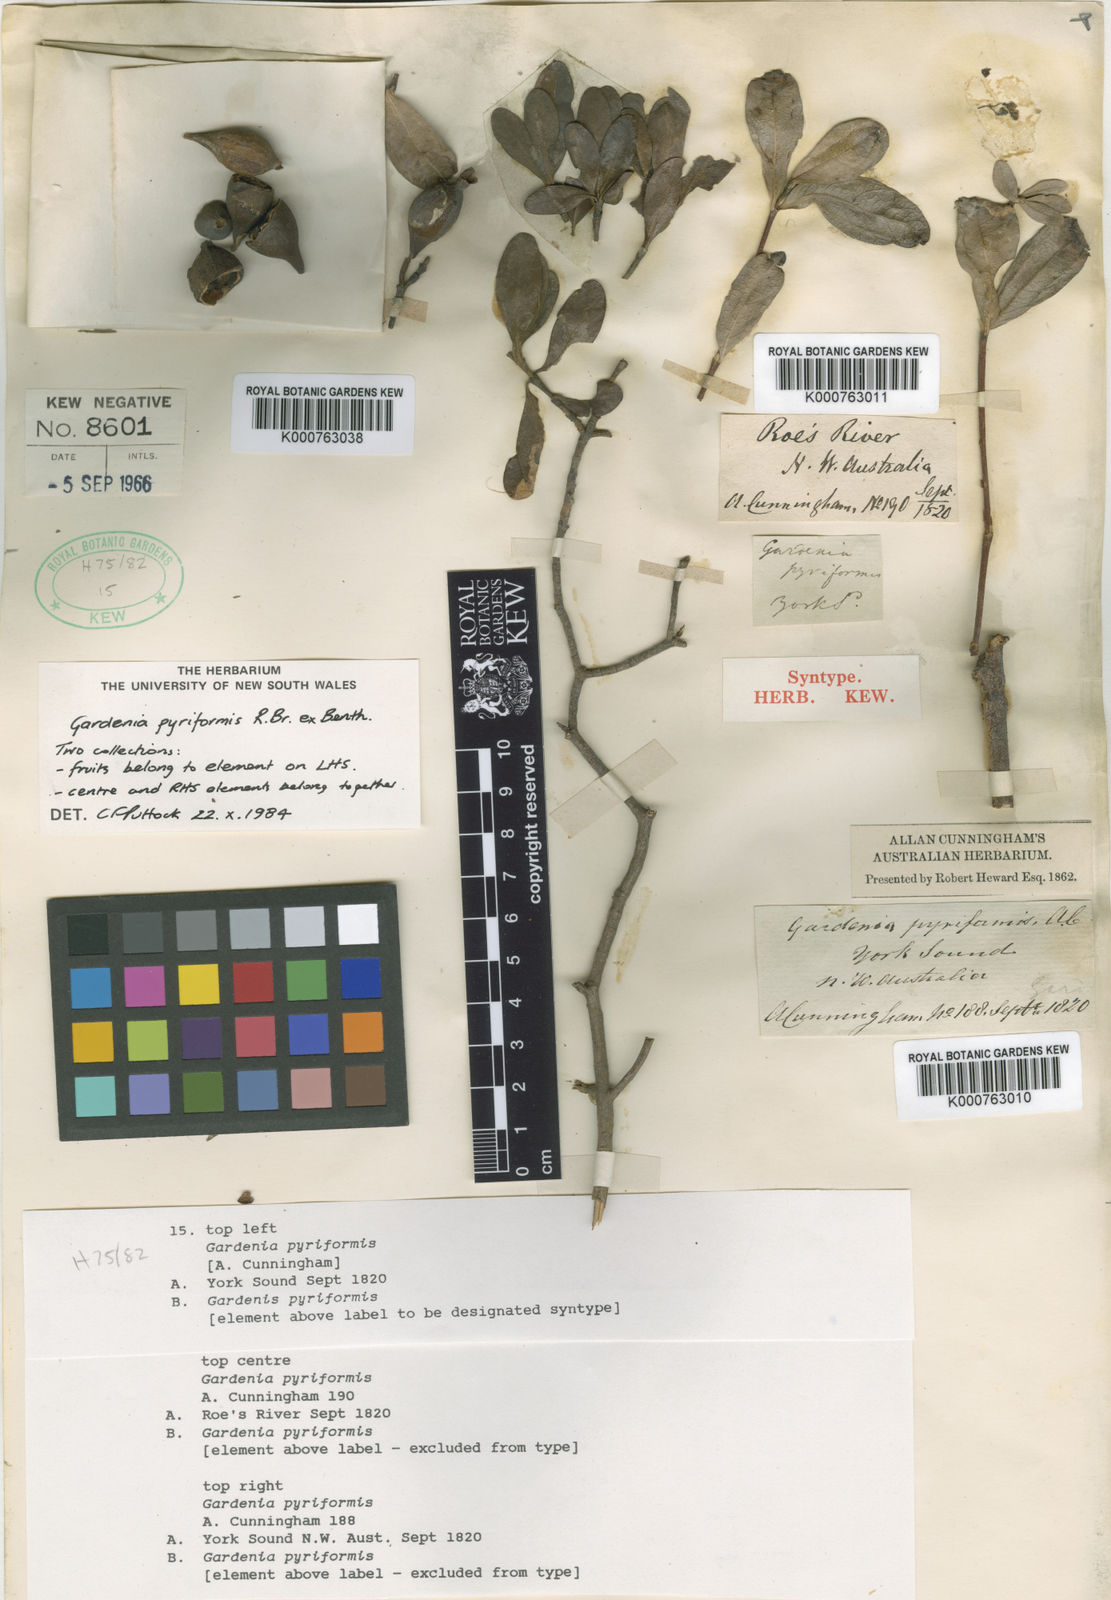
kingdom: Plantae
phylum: Tracheophyta
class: Magnoliopsida
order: Gentianales
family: Rubiaceae
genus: Gardenia
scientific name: Gardenia pyriformis
